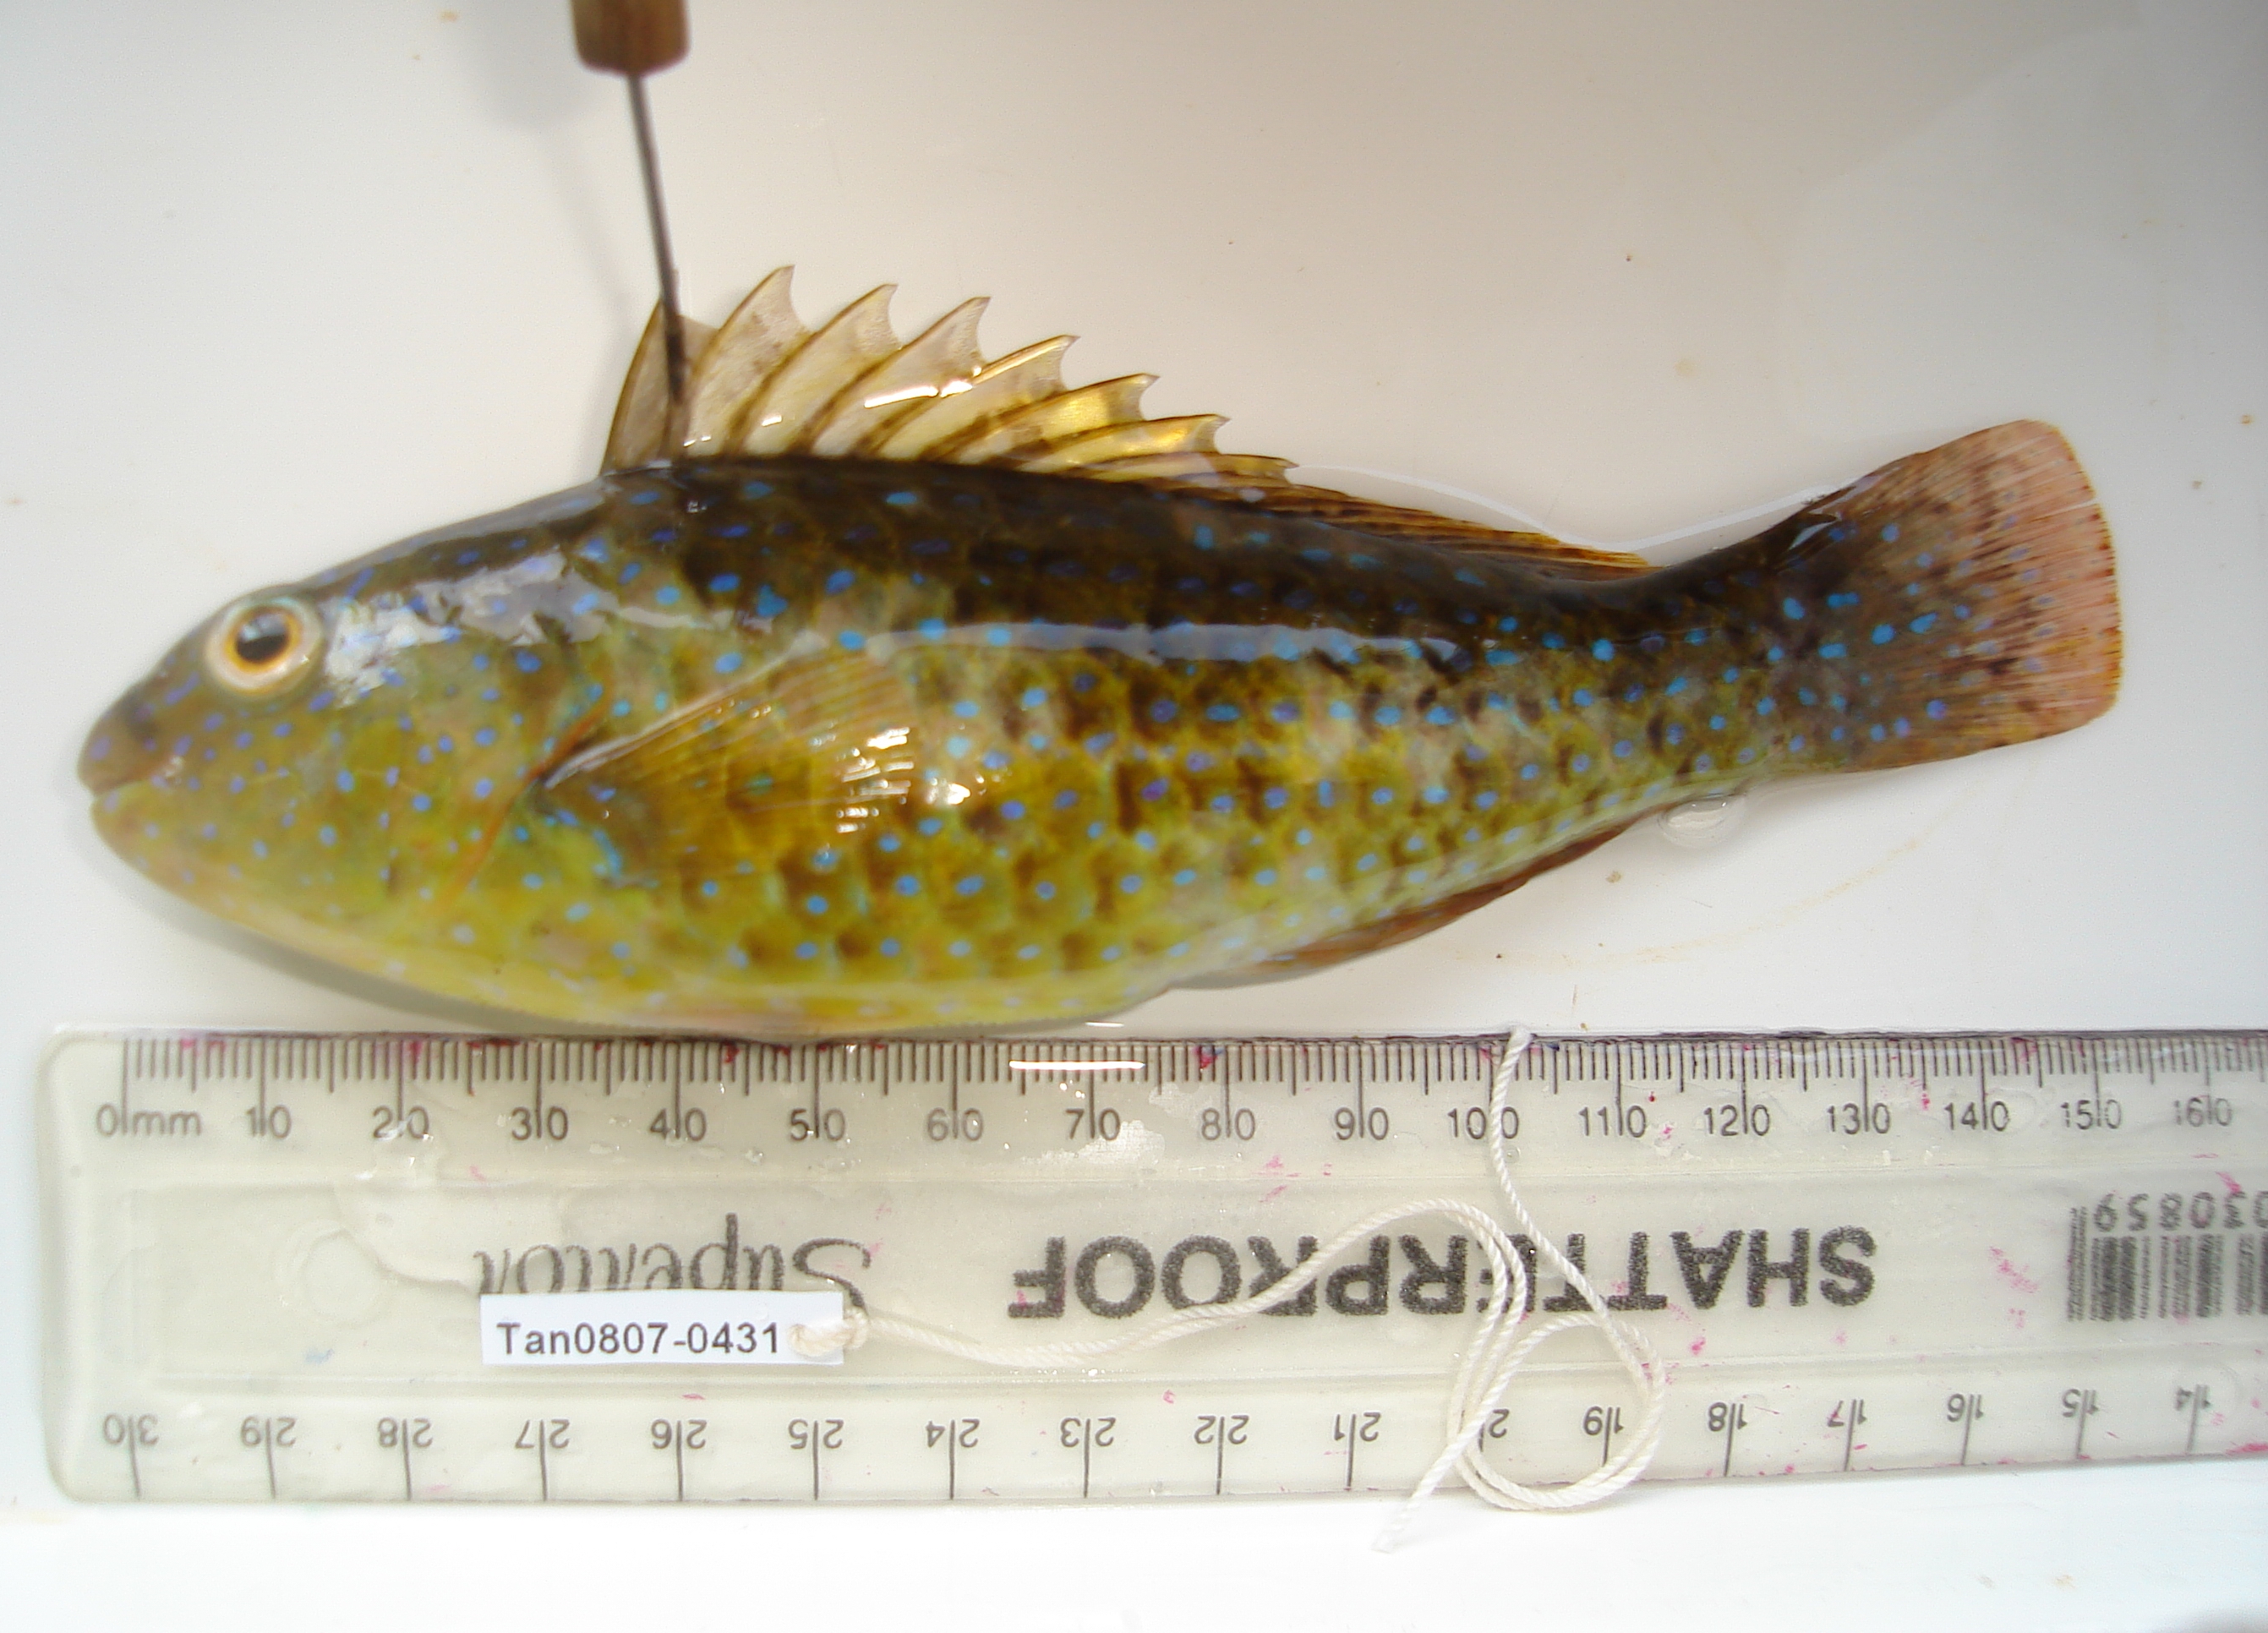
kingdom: Animalia
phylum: Chordata
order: Perciformes
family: Scaridae
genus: Leptoscarus
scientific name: Leptoscarus vaigiensis
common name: Marbled parrotfish
